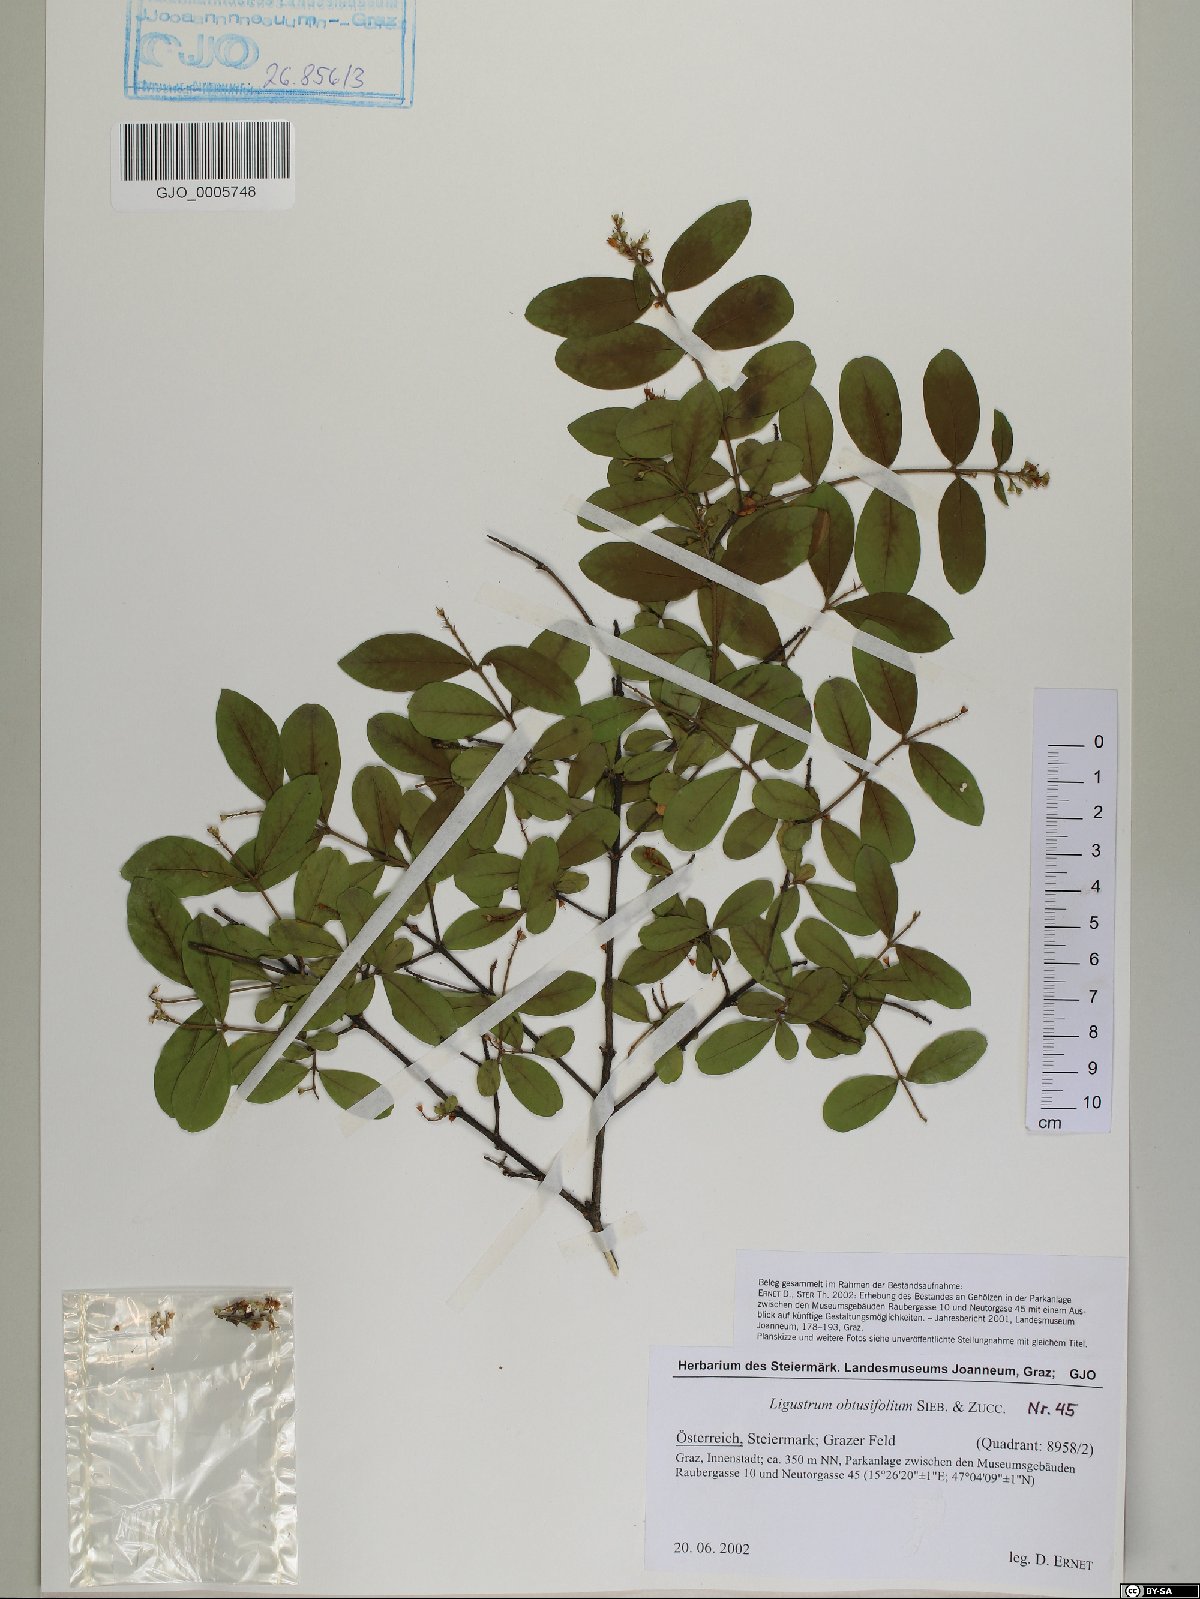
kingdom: Plantae
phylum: Tracheophyta
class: Magnoliopsida
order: Lamiales
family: Oleaceae
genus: Ligustrum
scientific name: Ligustrum obtusifolium
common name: Border privet
